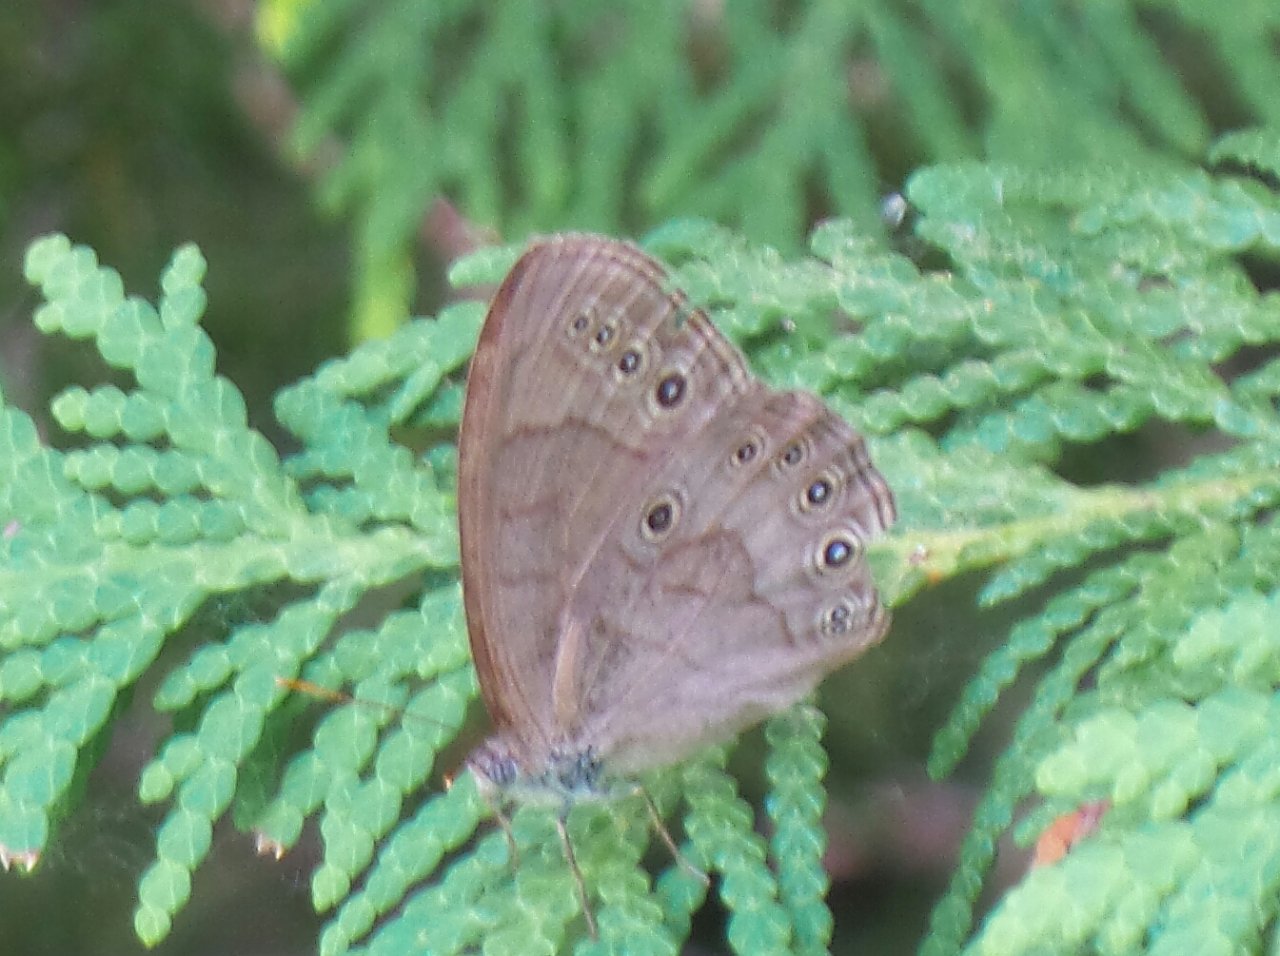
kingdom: Animalia
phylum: Arthropoda
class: Insecta
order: Lepidoptera
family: Nymphalidae
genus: Lethe
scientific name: Lethe eurydice
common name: Appalachian Eyed Brown
